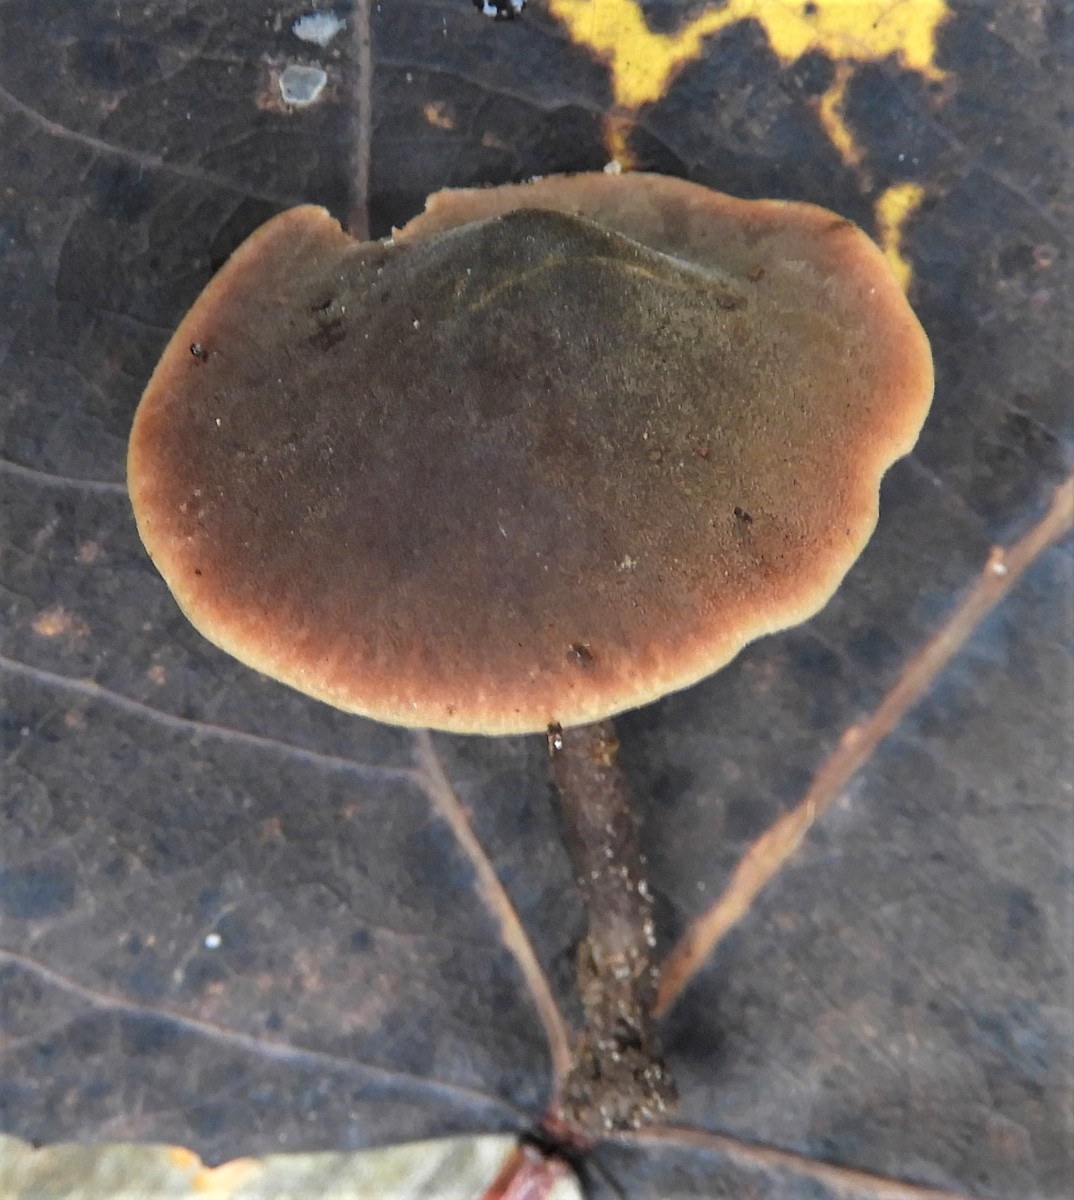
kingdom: Fungi
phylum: Basidiomycota
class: Agaricomycetes
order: Agaricales
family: Macrocystidiaceae
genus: Macrocystidia
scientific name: Macrocystidia cucumis
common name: agurkehat
